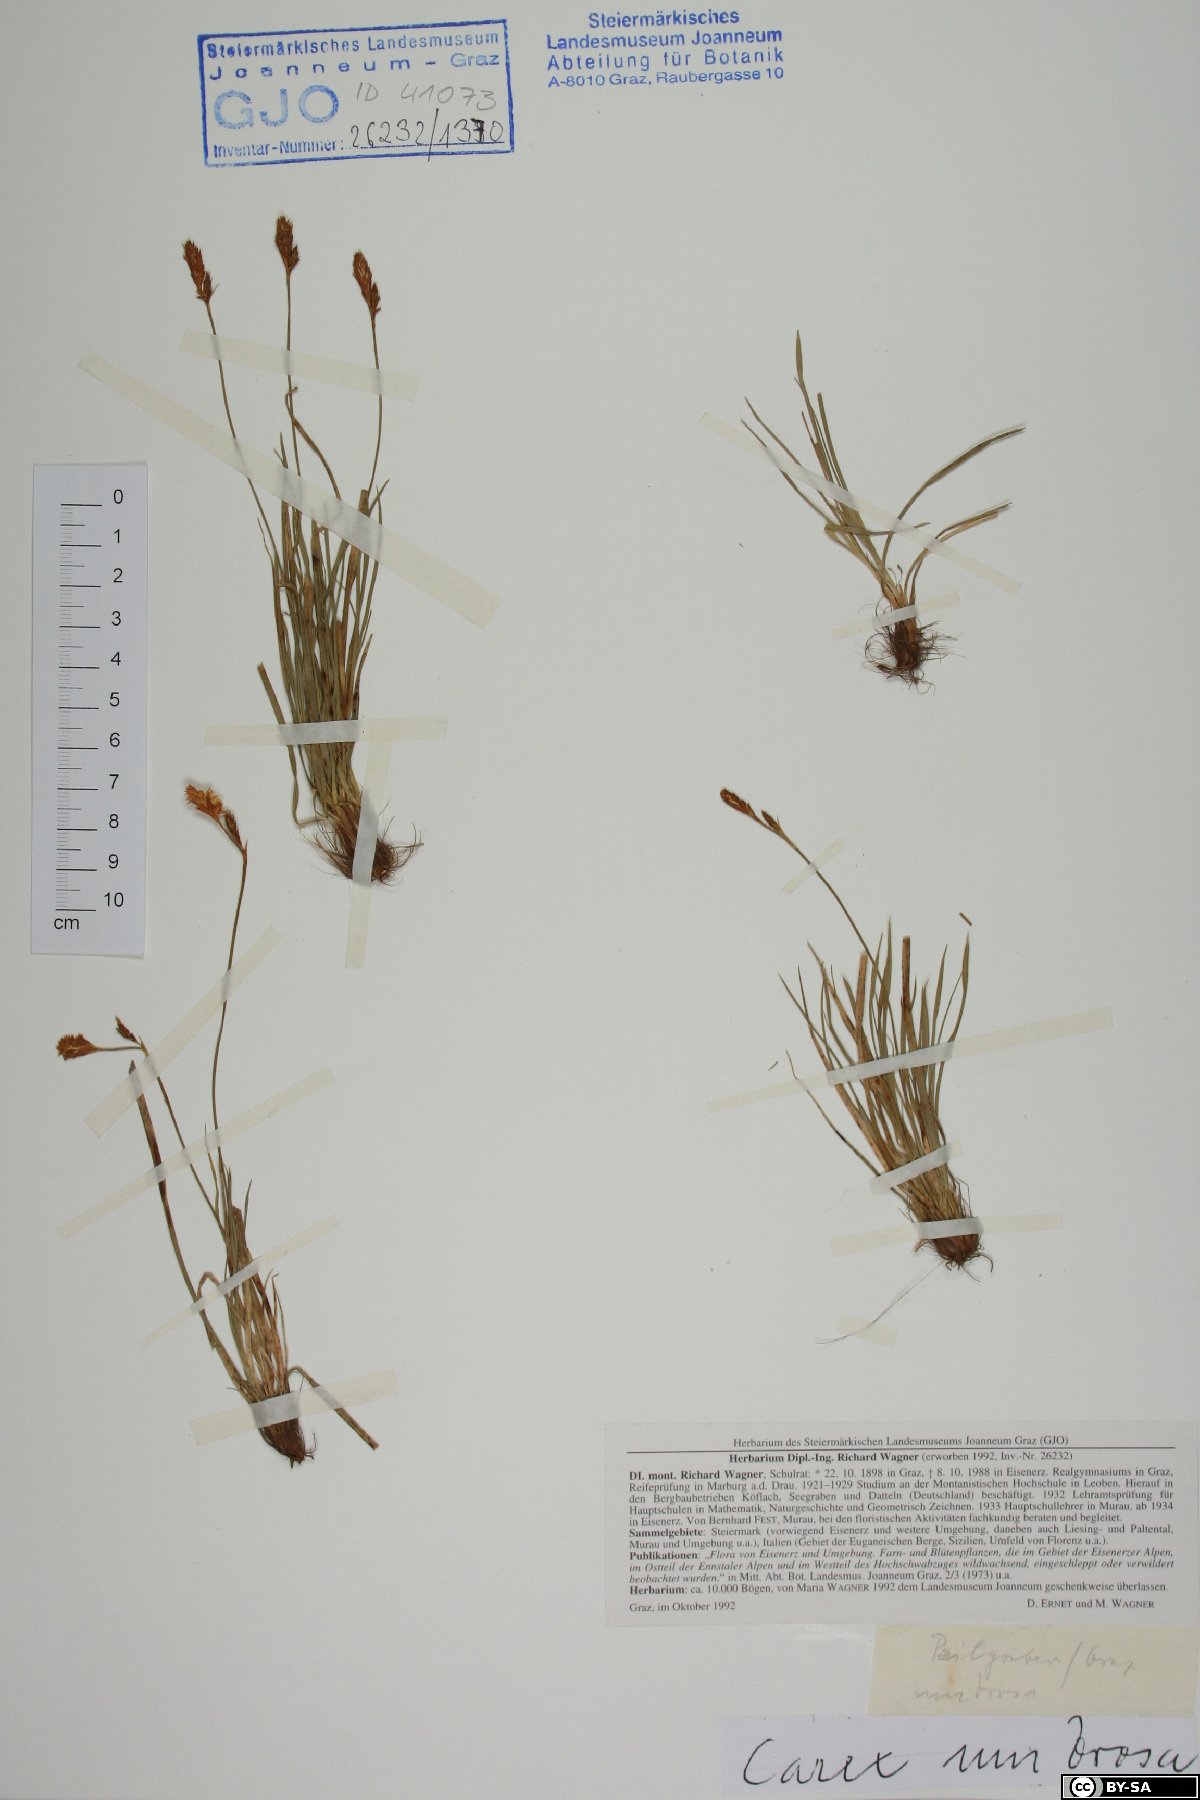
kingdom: Plantae
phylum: Tracheophyta
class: Liliopsida
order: Poales
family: Cyperaceae
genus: Carex
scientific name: Carex umbrosa
